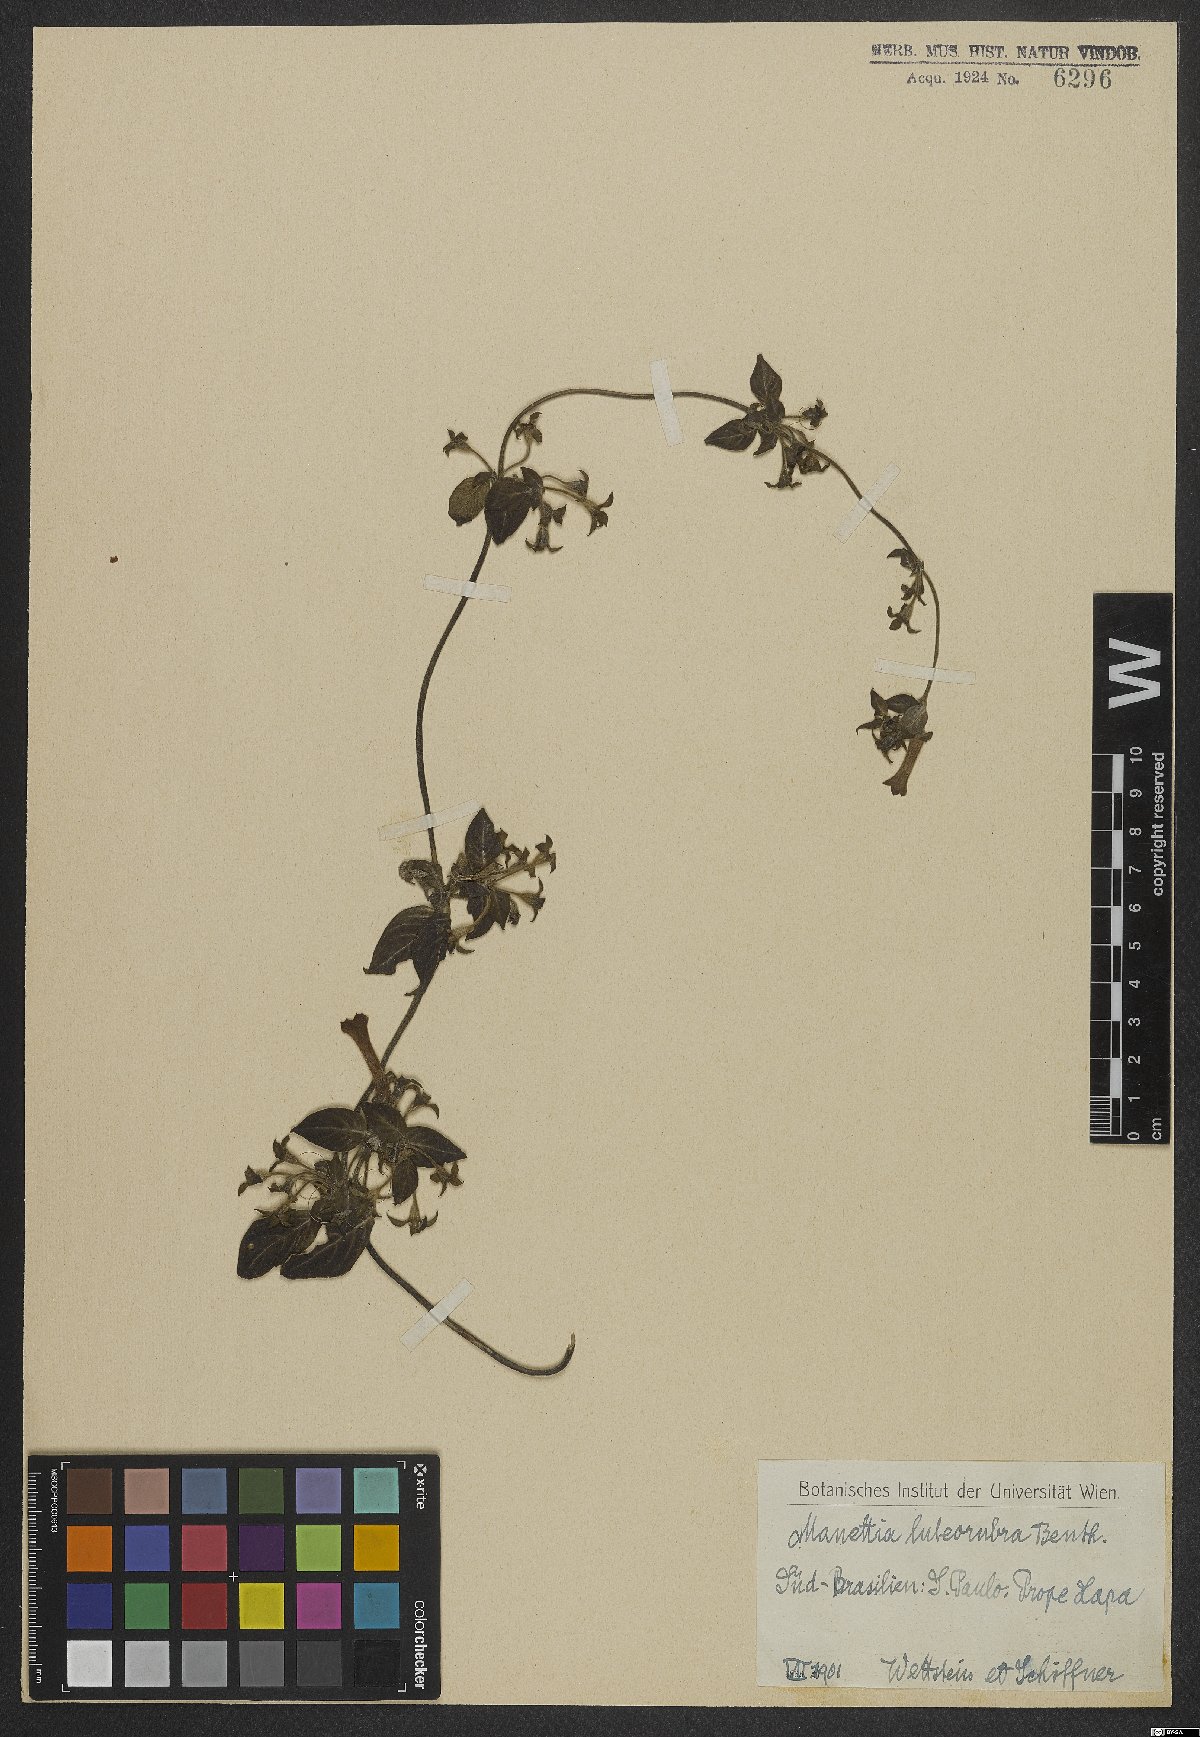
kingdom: Plantae
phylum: Tracheophyta
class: Magnoliopsida
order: Gentianales
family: Rubiaceae
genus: Manettia
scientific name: Manettia luteorubra
